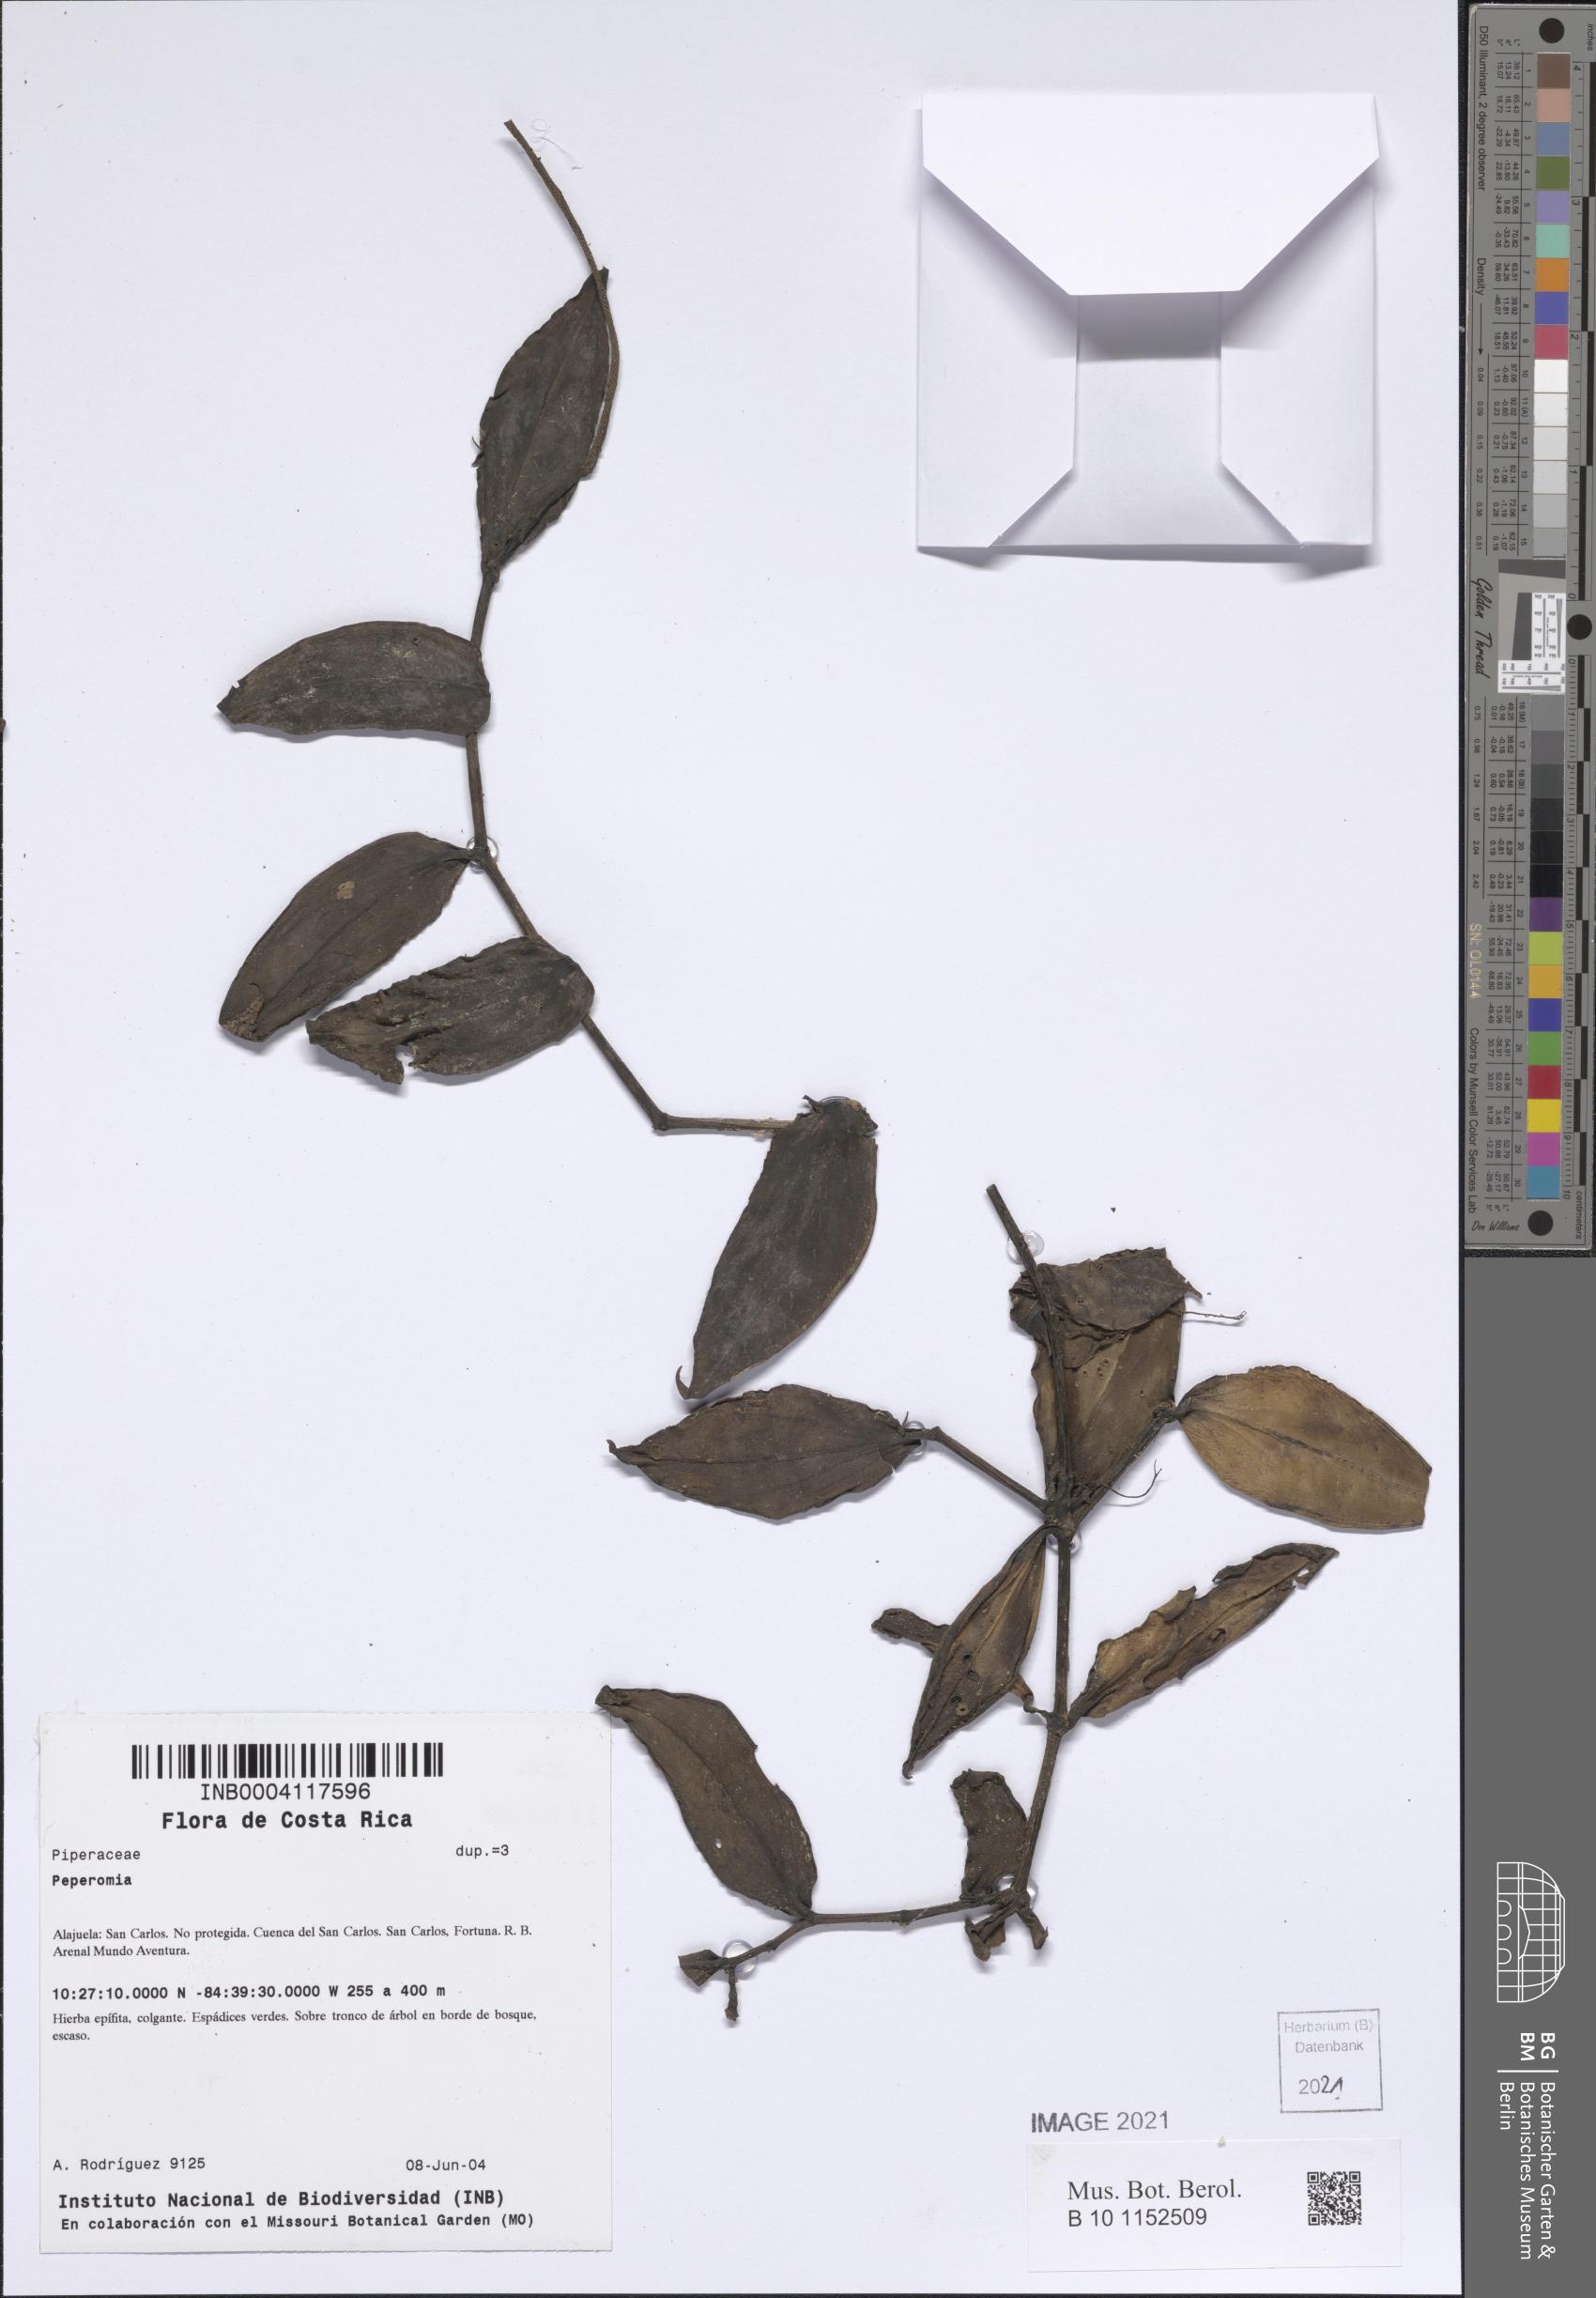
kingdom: Plantae
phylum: Tracheophyta
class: Magnoliopsida
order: Piperales
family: Piperaceae
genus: Peperomia
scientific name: Peperomia
